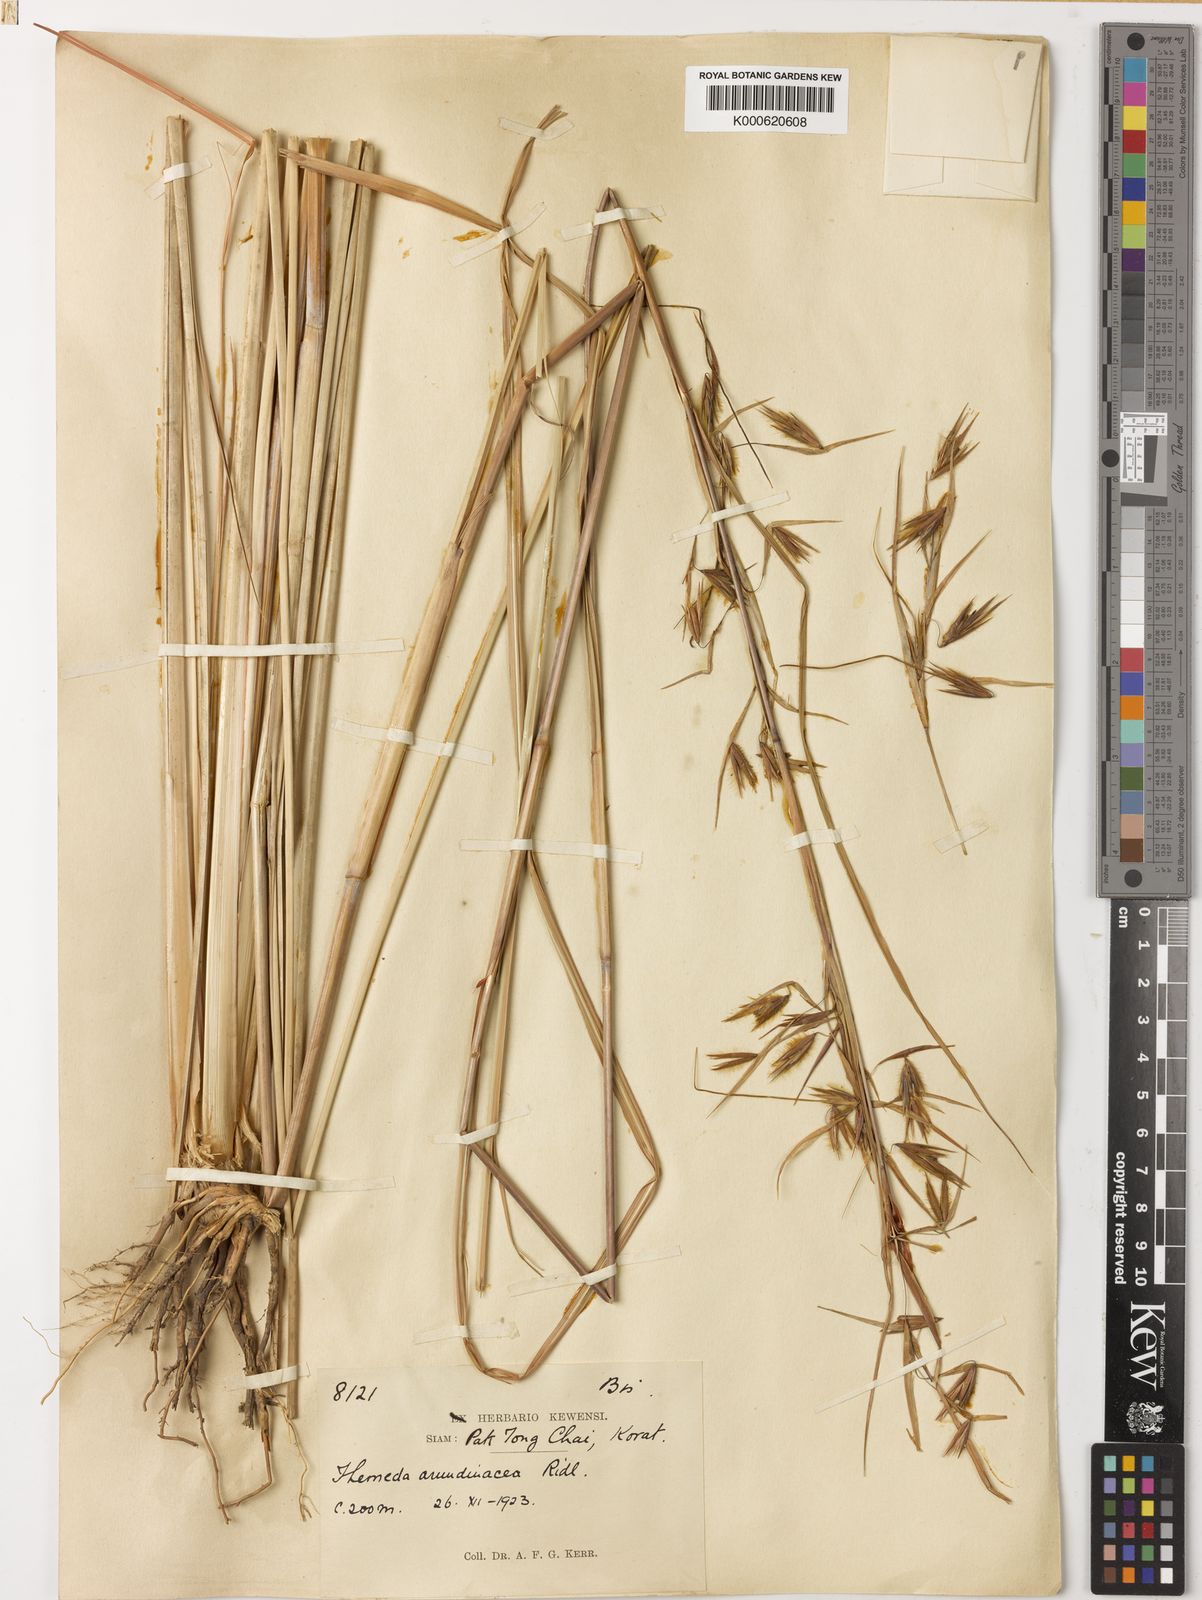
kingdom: Plantae
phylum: Tracheophyta
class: Liliopsida
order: Poales
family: Poaceae
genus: Themeda
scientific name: Themeda arundinacea
